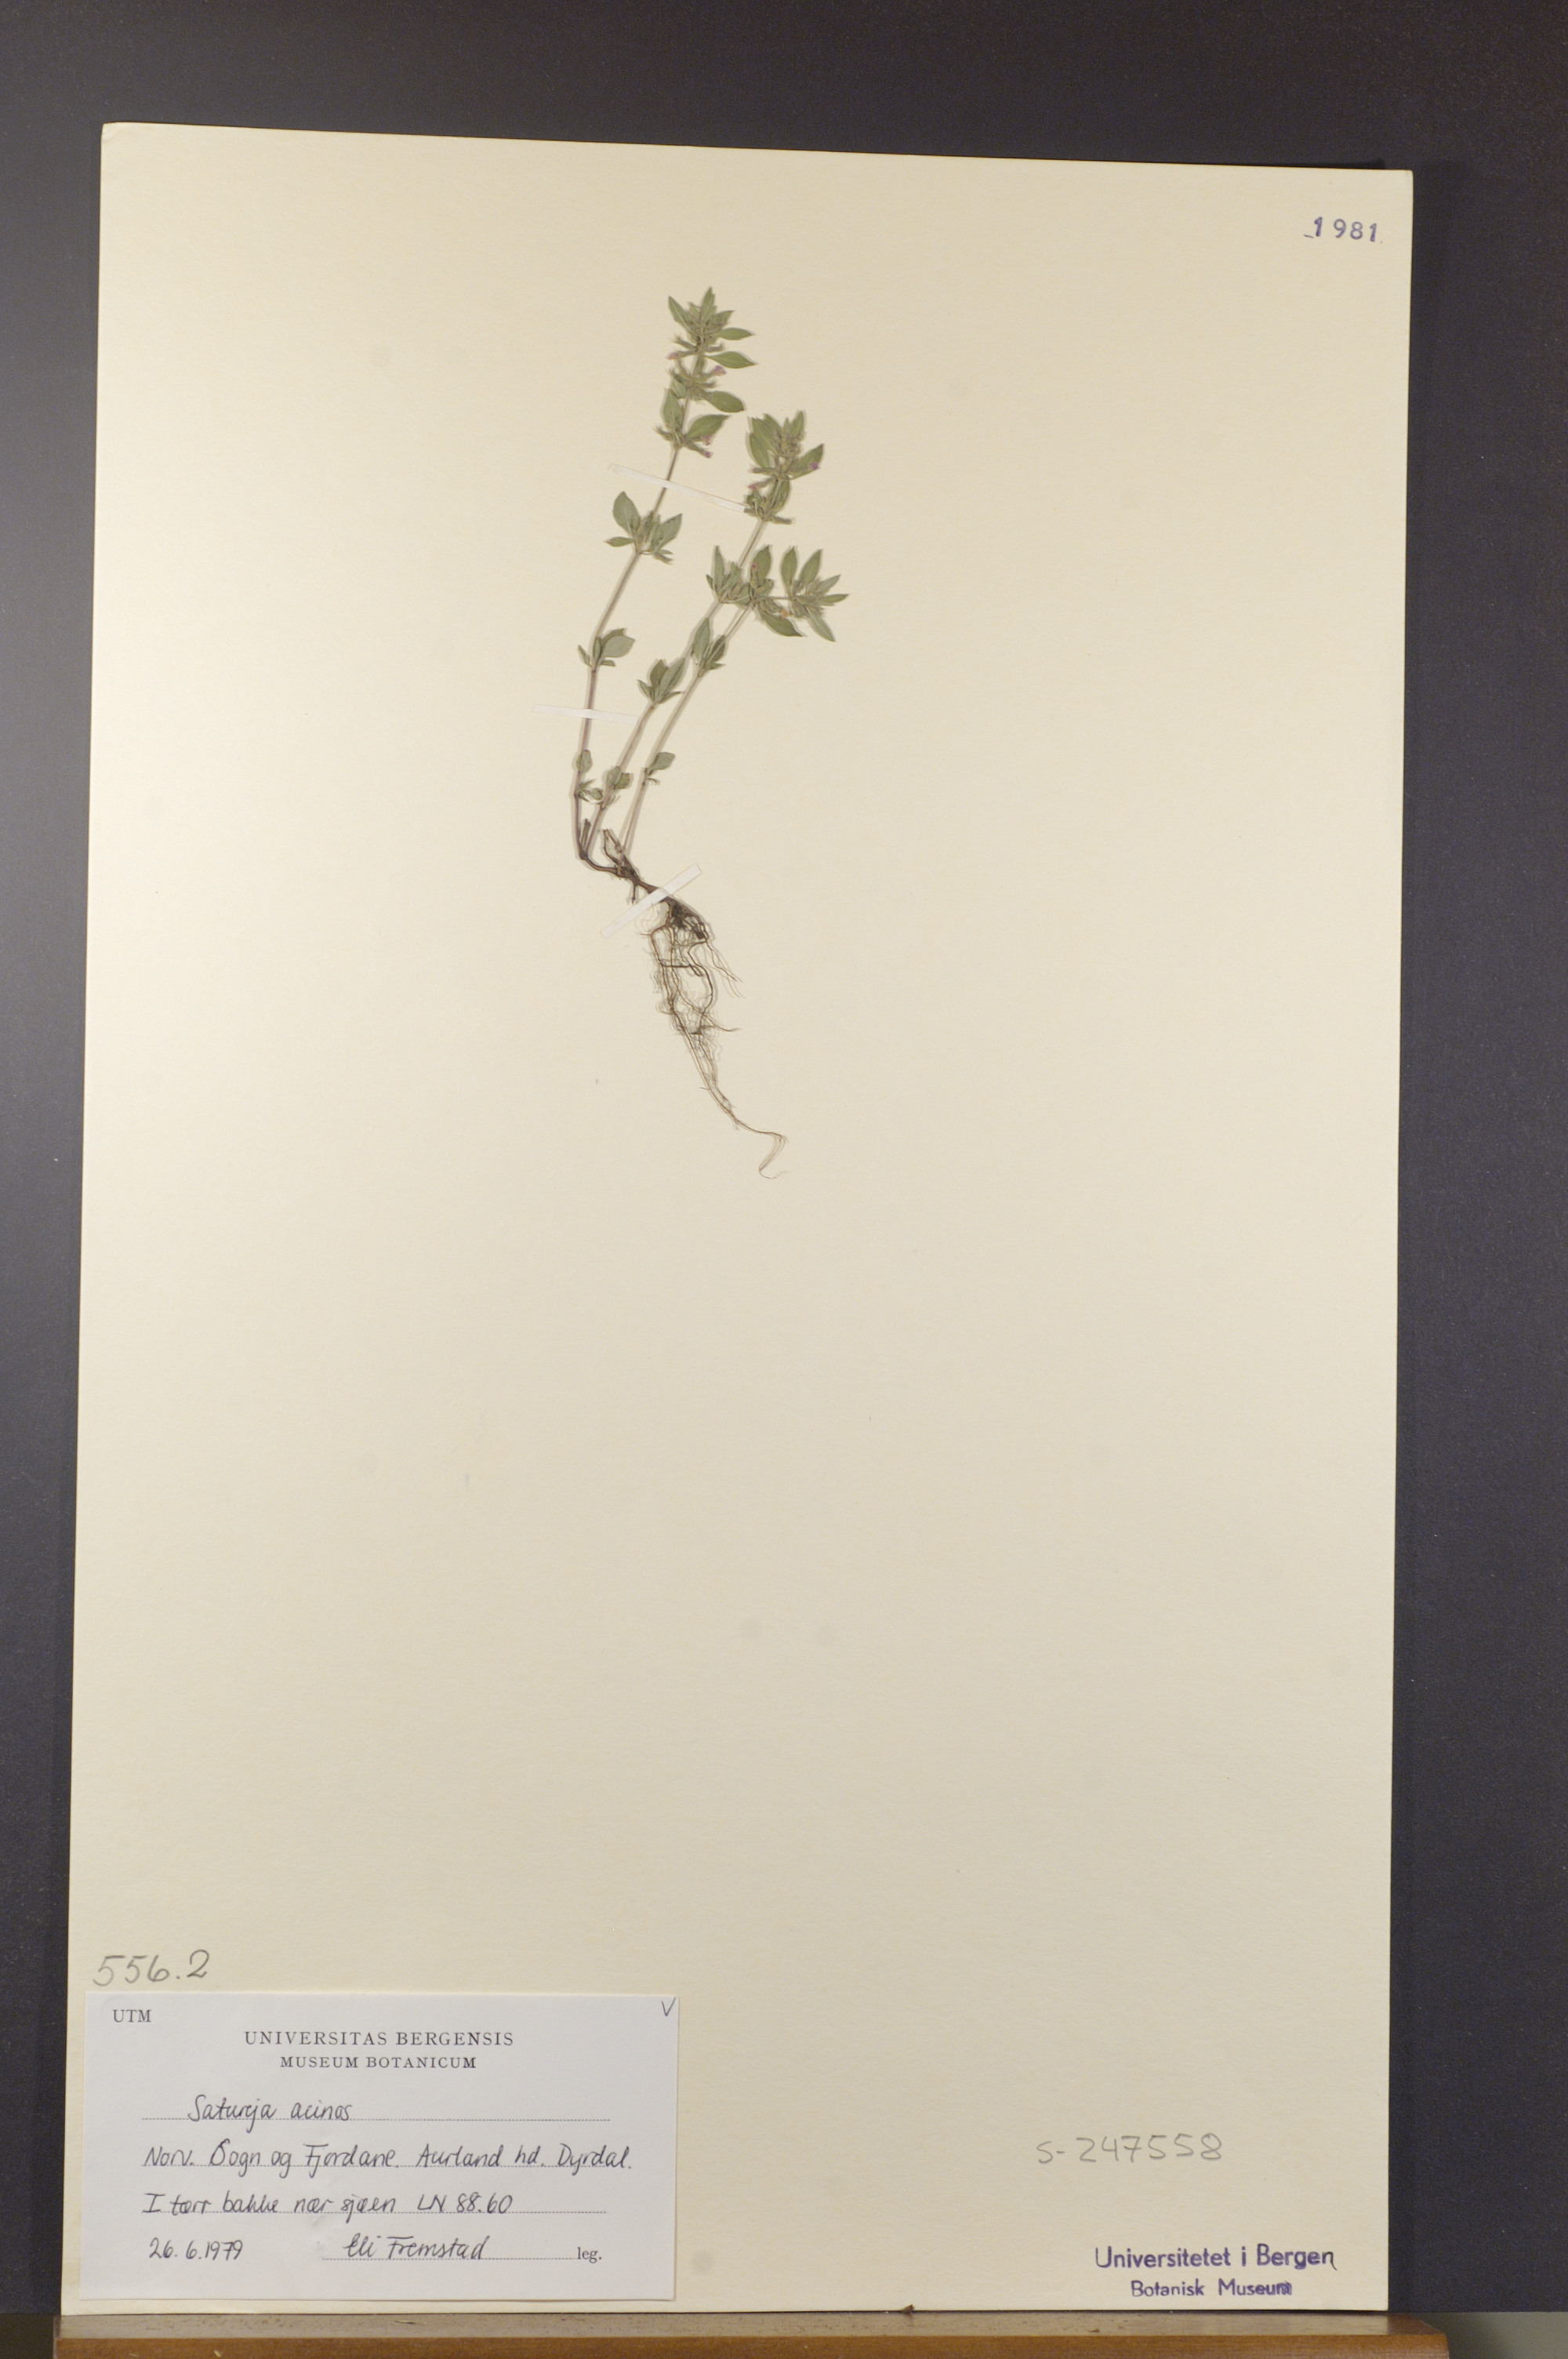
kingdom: Plantae
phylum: Tracheophyta
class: Magnoliopsida
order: Lamiales
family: Lamiaceae
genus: Clinopodium
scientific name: Clinopodium acinos
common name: Basil thyme
